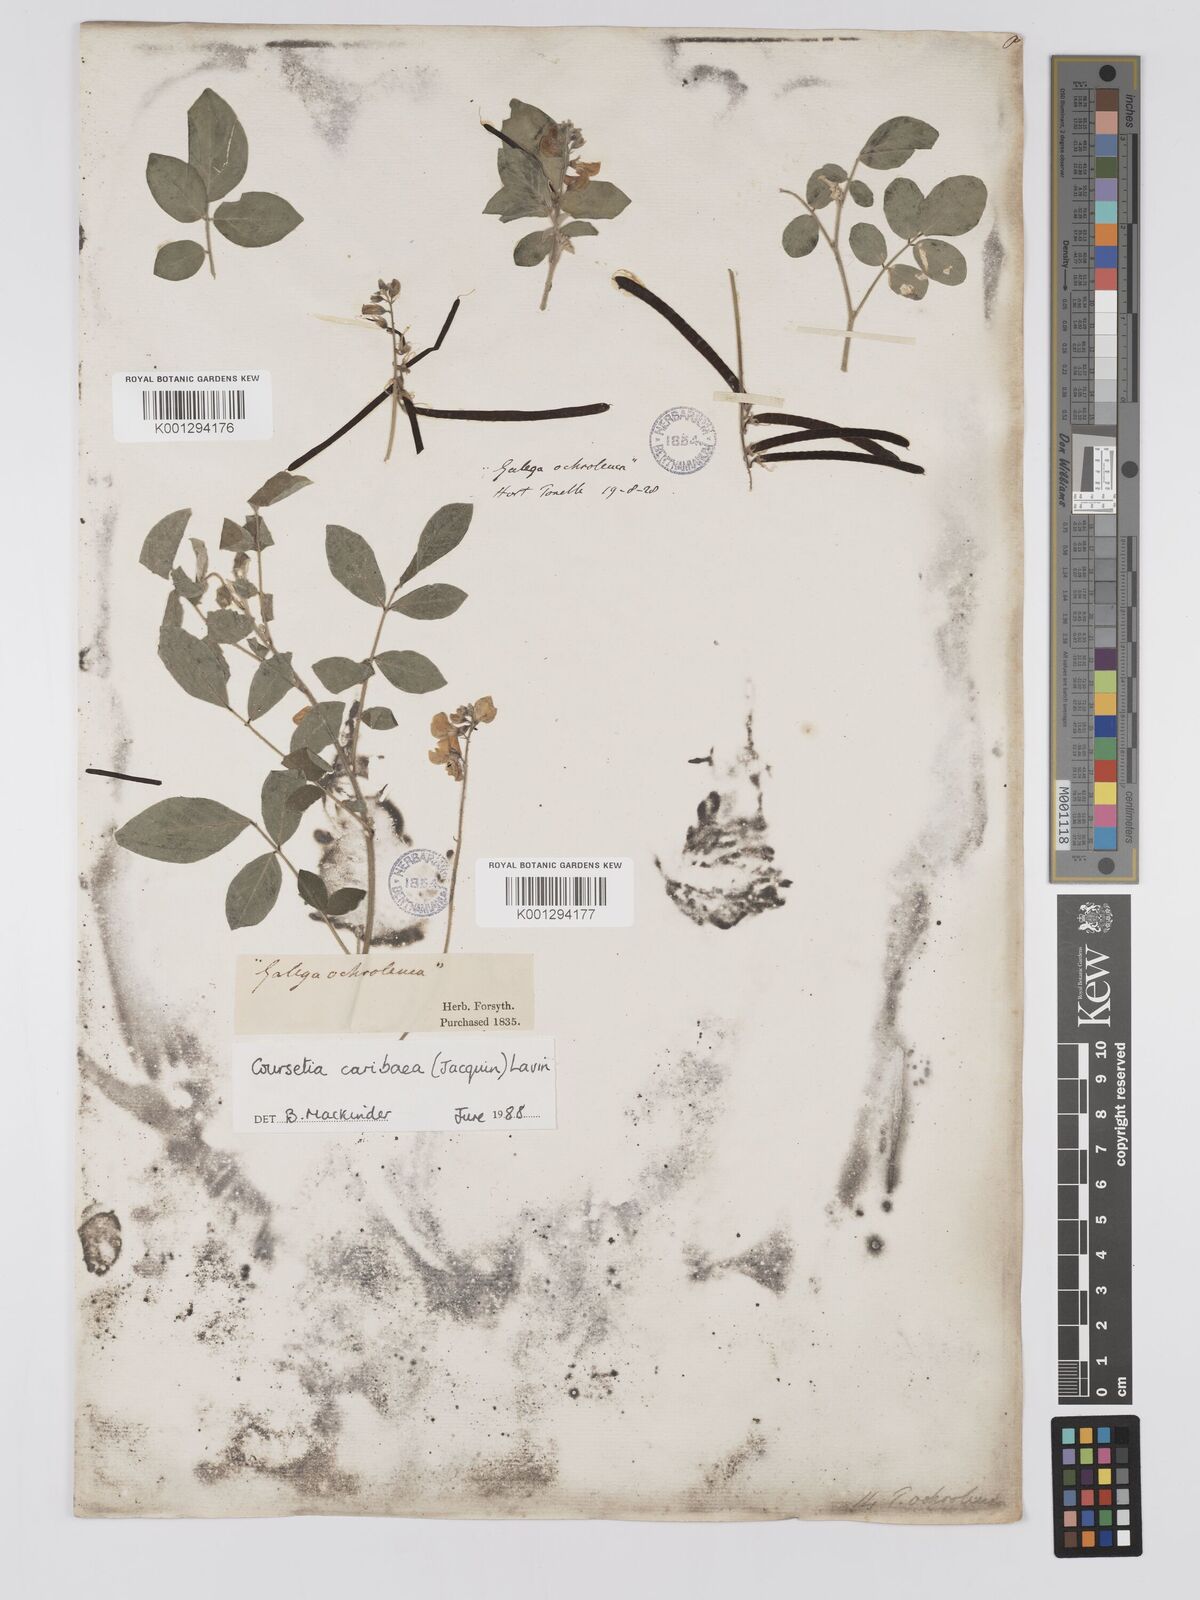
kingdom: Plantae
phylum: Tracheophyta
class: Magnoliopsida
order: Fabales
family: Fabaceae
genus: Coursetia
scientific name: Coursetia
